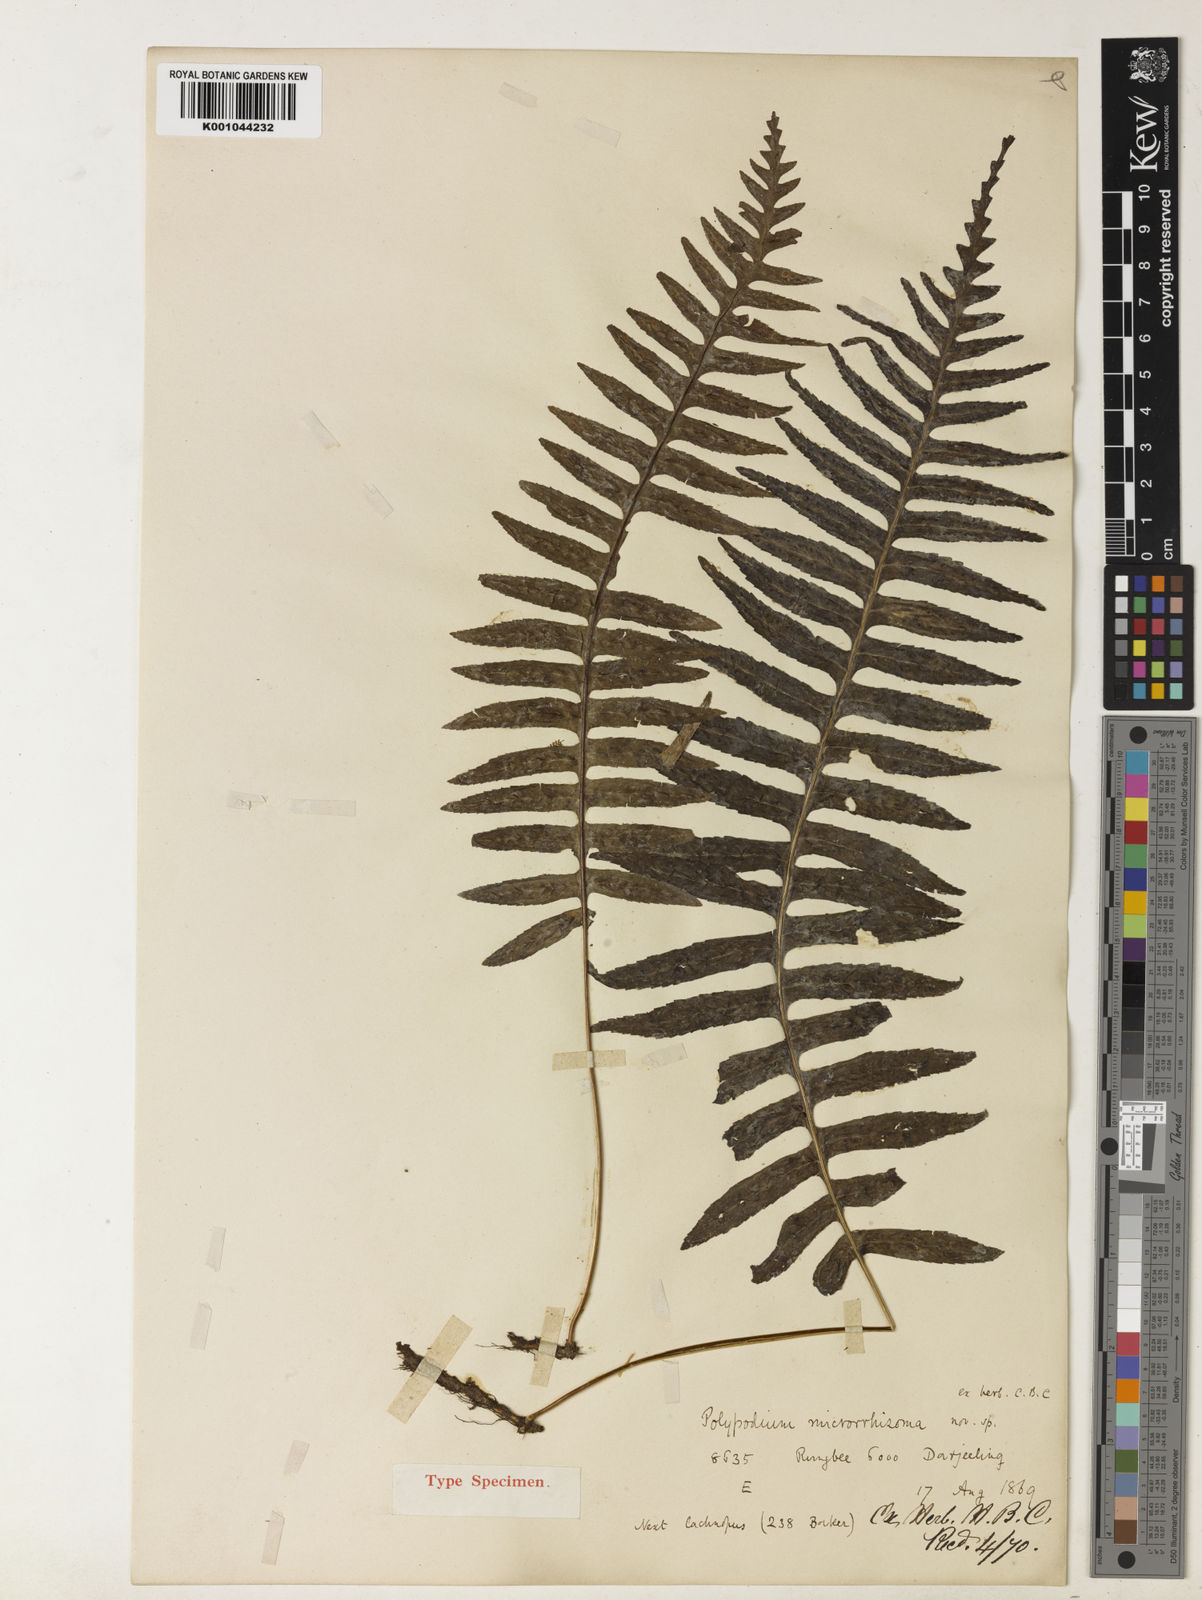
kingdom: Plantae
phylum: Tracheophyta
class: Polypodiopsida
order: Polypodiales
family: Polypodiaceae
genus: Goniophlebium
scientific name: Goniophlebium fieldingianum
